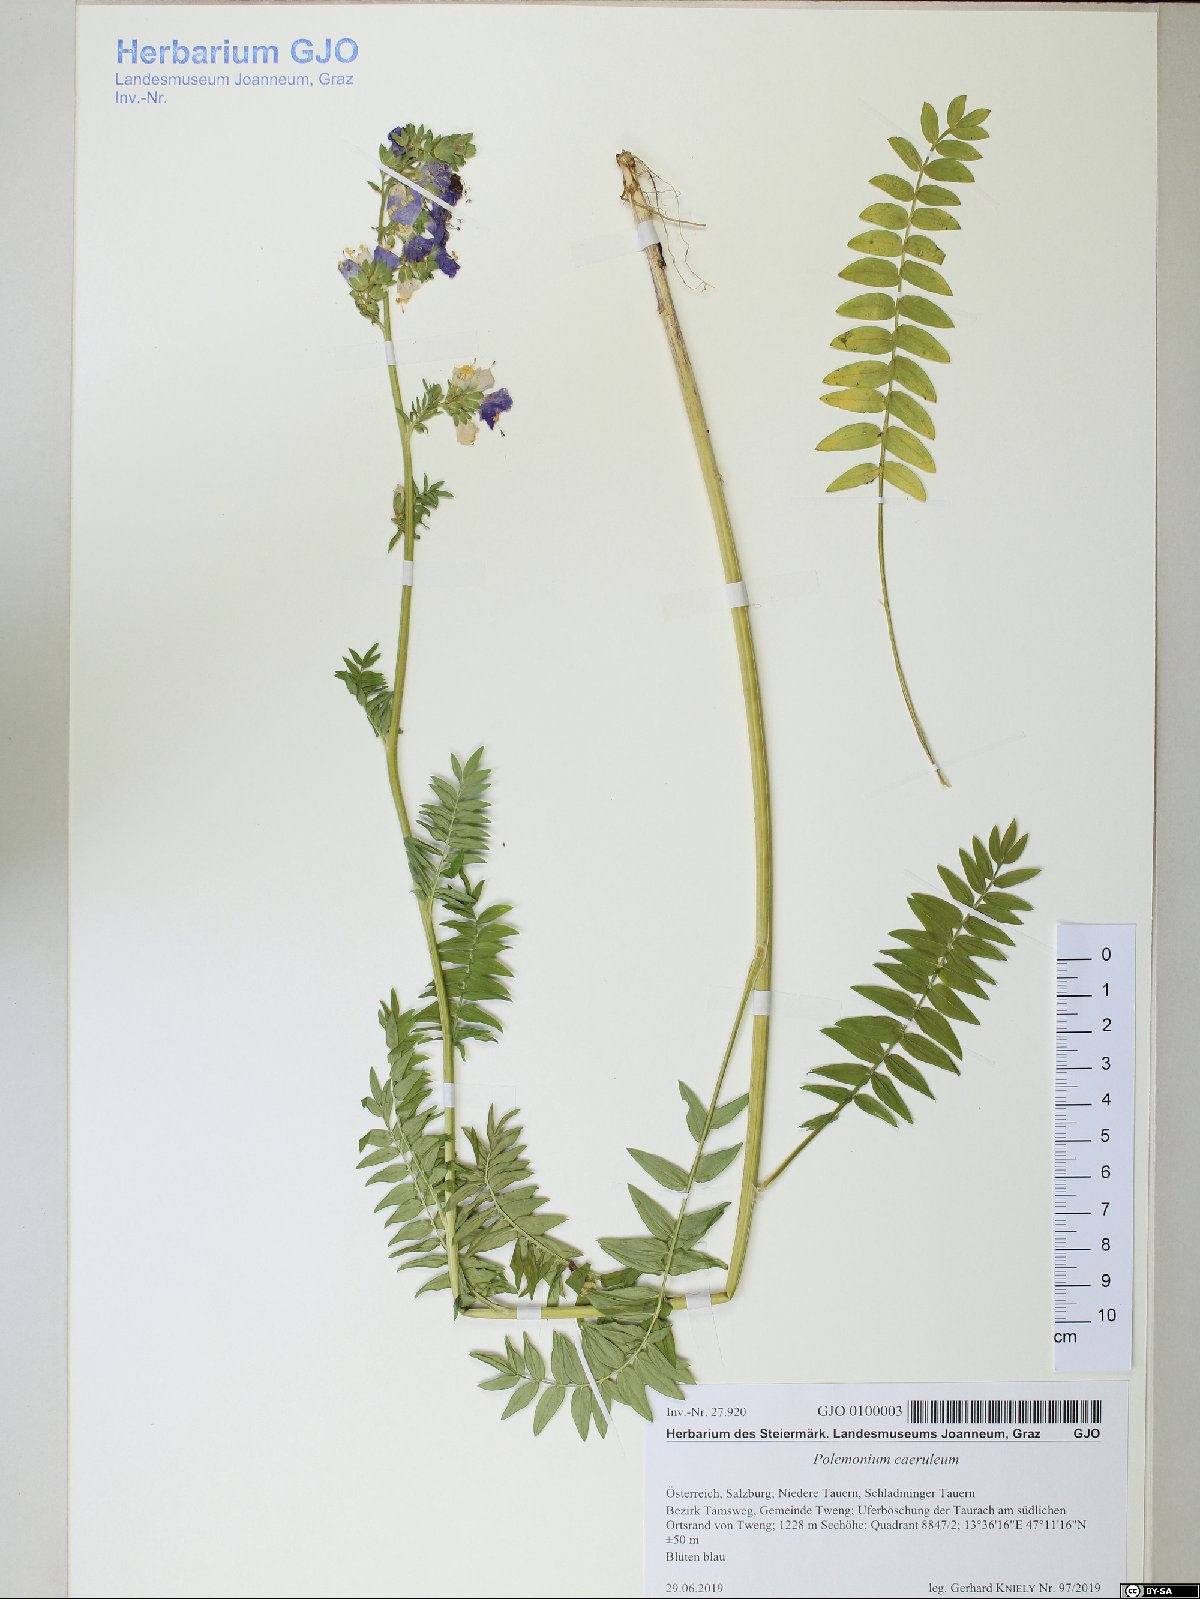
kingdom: Plantae
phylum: Tracheophyta
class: Magnoliopsida
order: Ericales
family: Polemoniaceae
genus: Polemonium
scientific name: Polemonium caeruleum
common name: Jacob's-ladder
